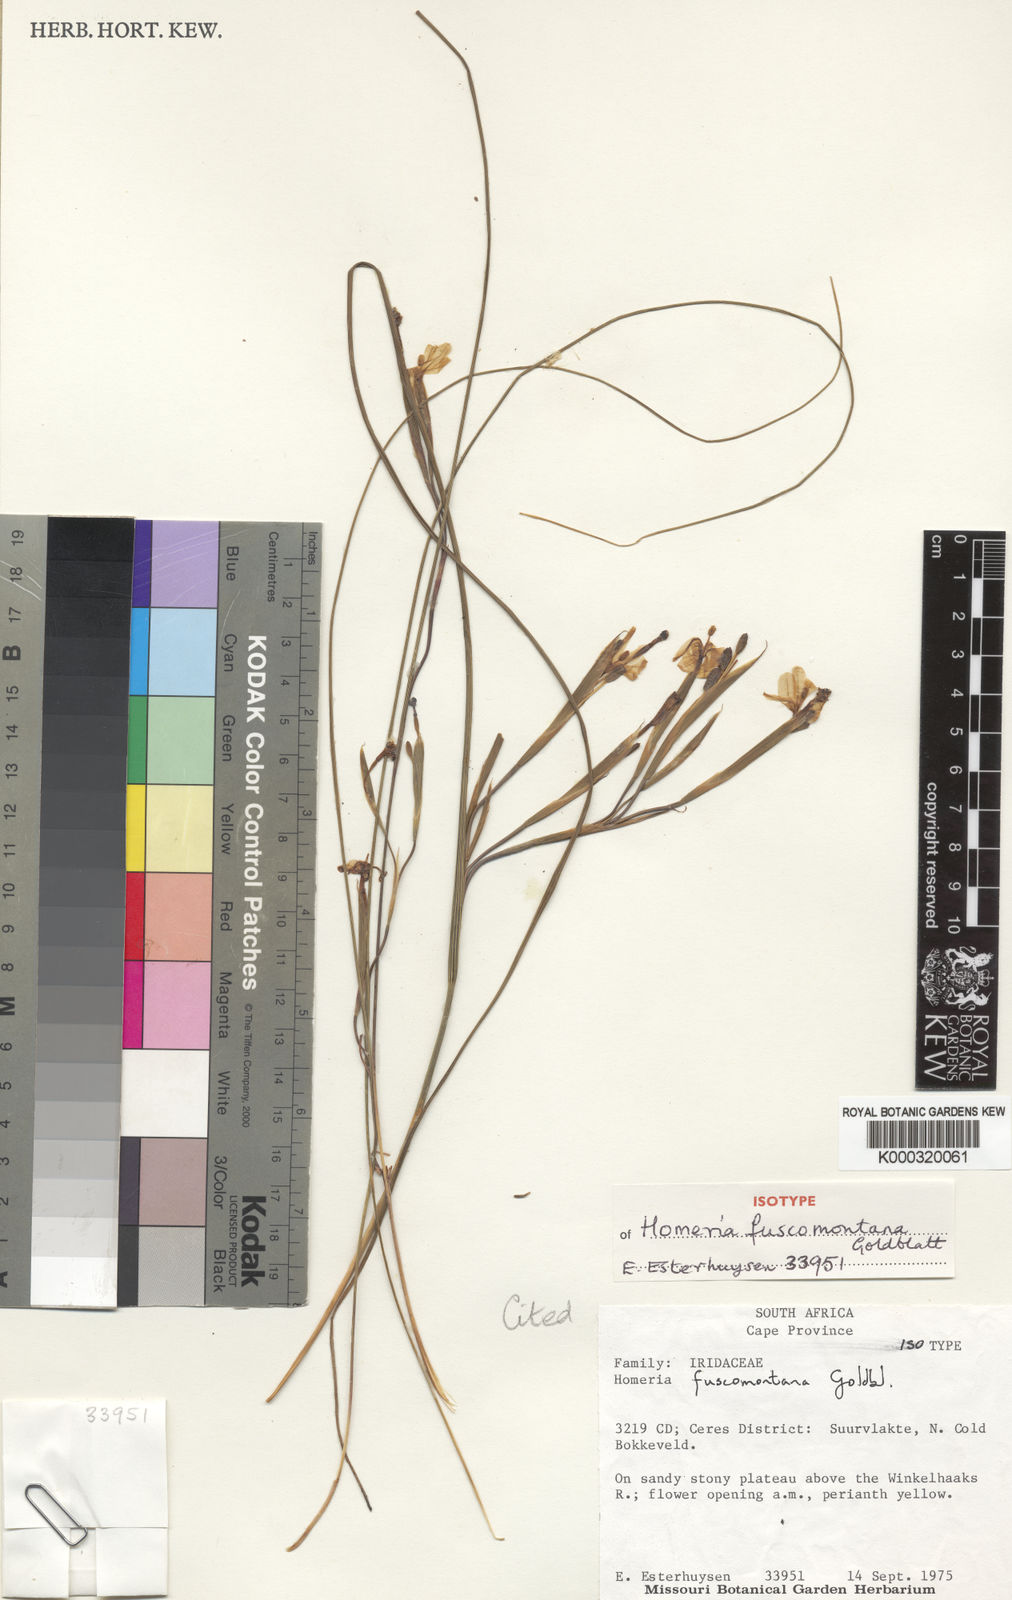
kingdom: Plantae
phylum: Tracheophyta
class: Liliopsida
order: Asparagales
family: Iridaceae
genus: Moraea
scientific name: Moraea fuscomontana
